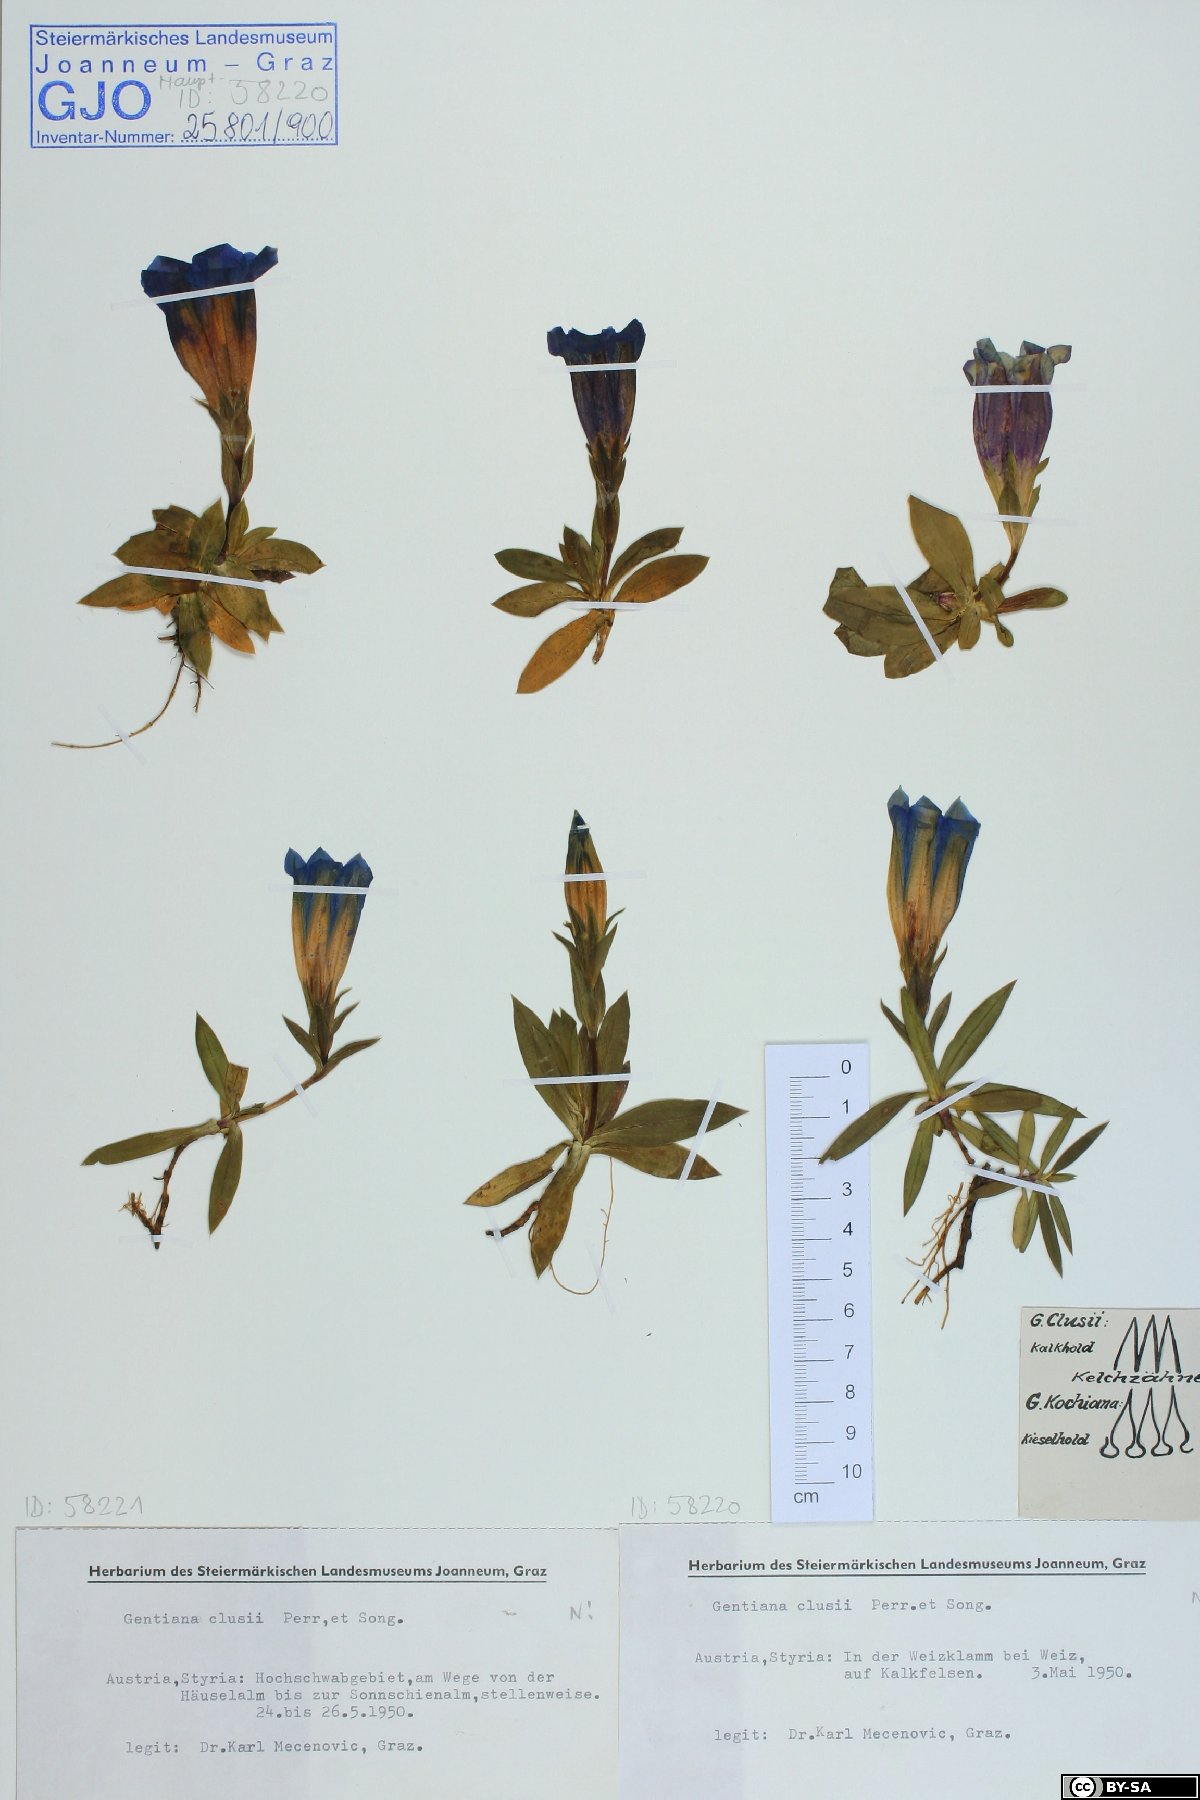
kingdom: Plantae
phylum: Tracheophyta
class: Magnoliopsida
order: Gentianales
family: Gentianaceae
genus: Gentiana
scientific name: Gentiana clusii
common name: Trumpet gentian
